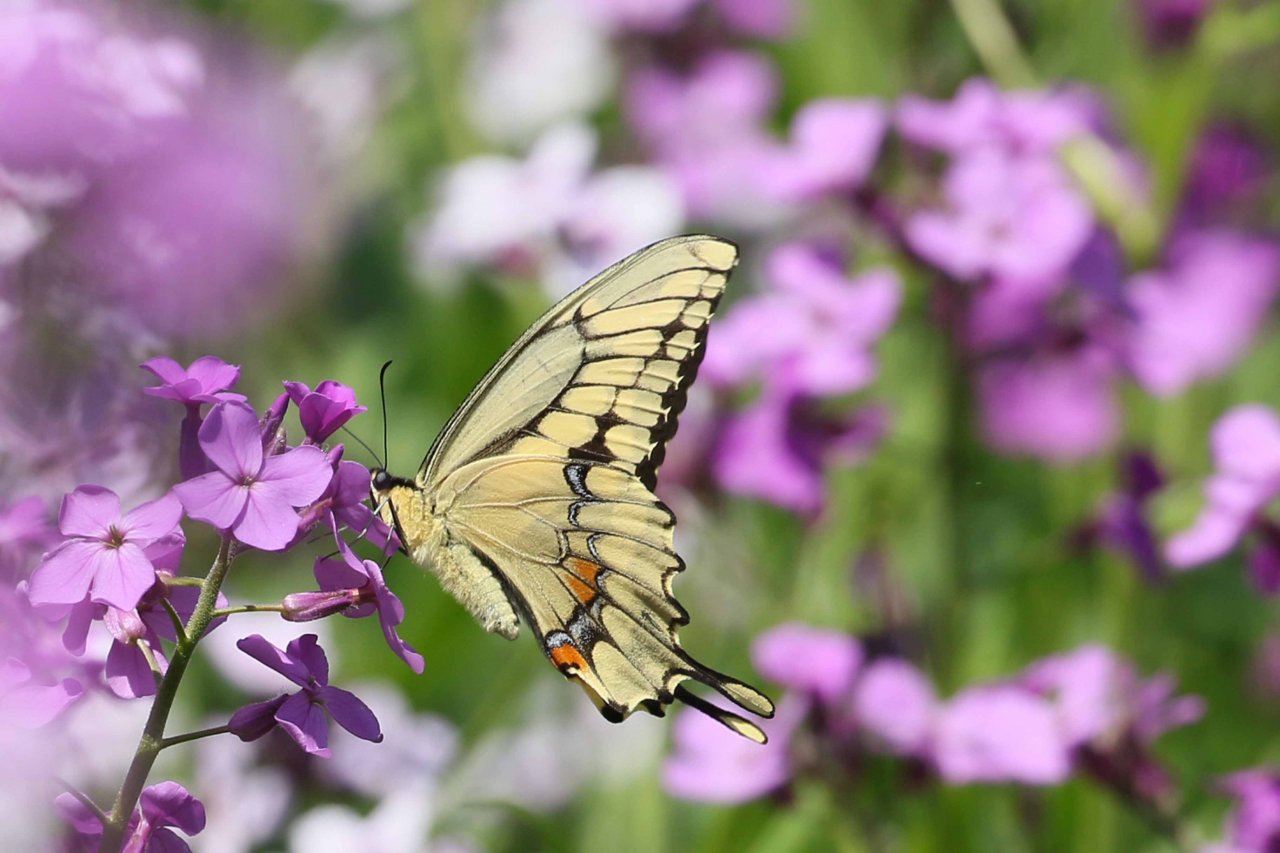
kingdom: Animalia
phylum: Arthropoda
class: Insecta
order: Lepidoptera
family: Papilionidae
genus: Papilio
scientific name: Papilio cresphontes
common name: Eastern Giant Swallowtail
